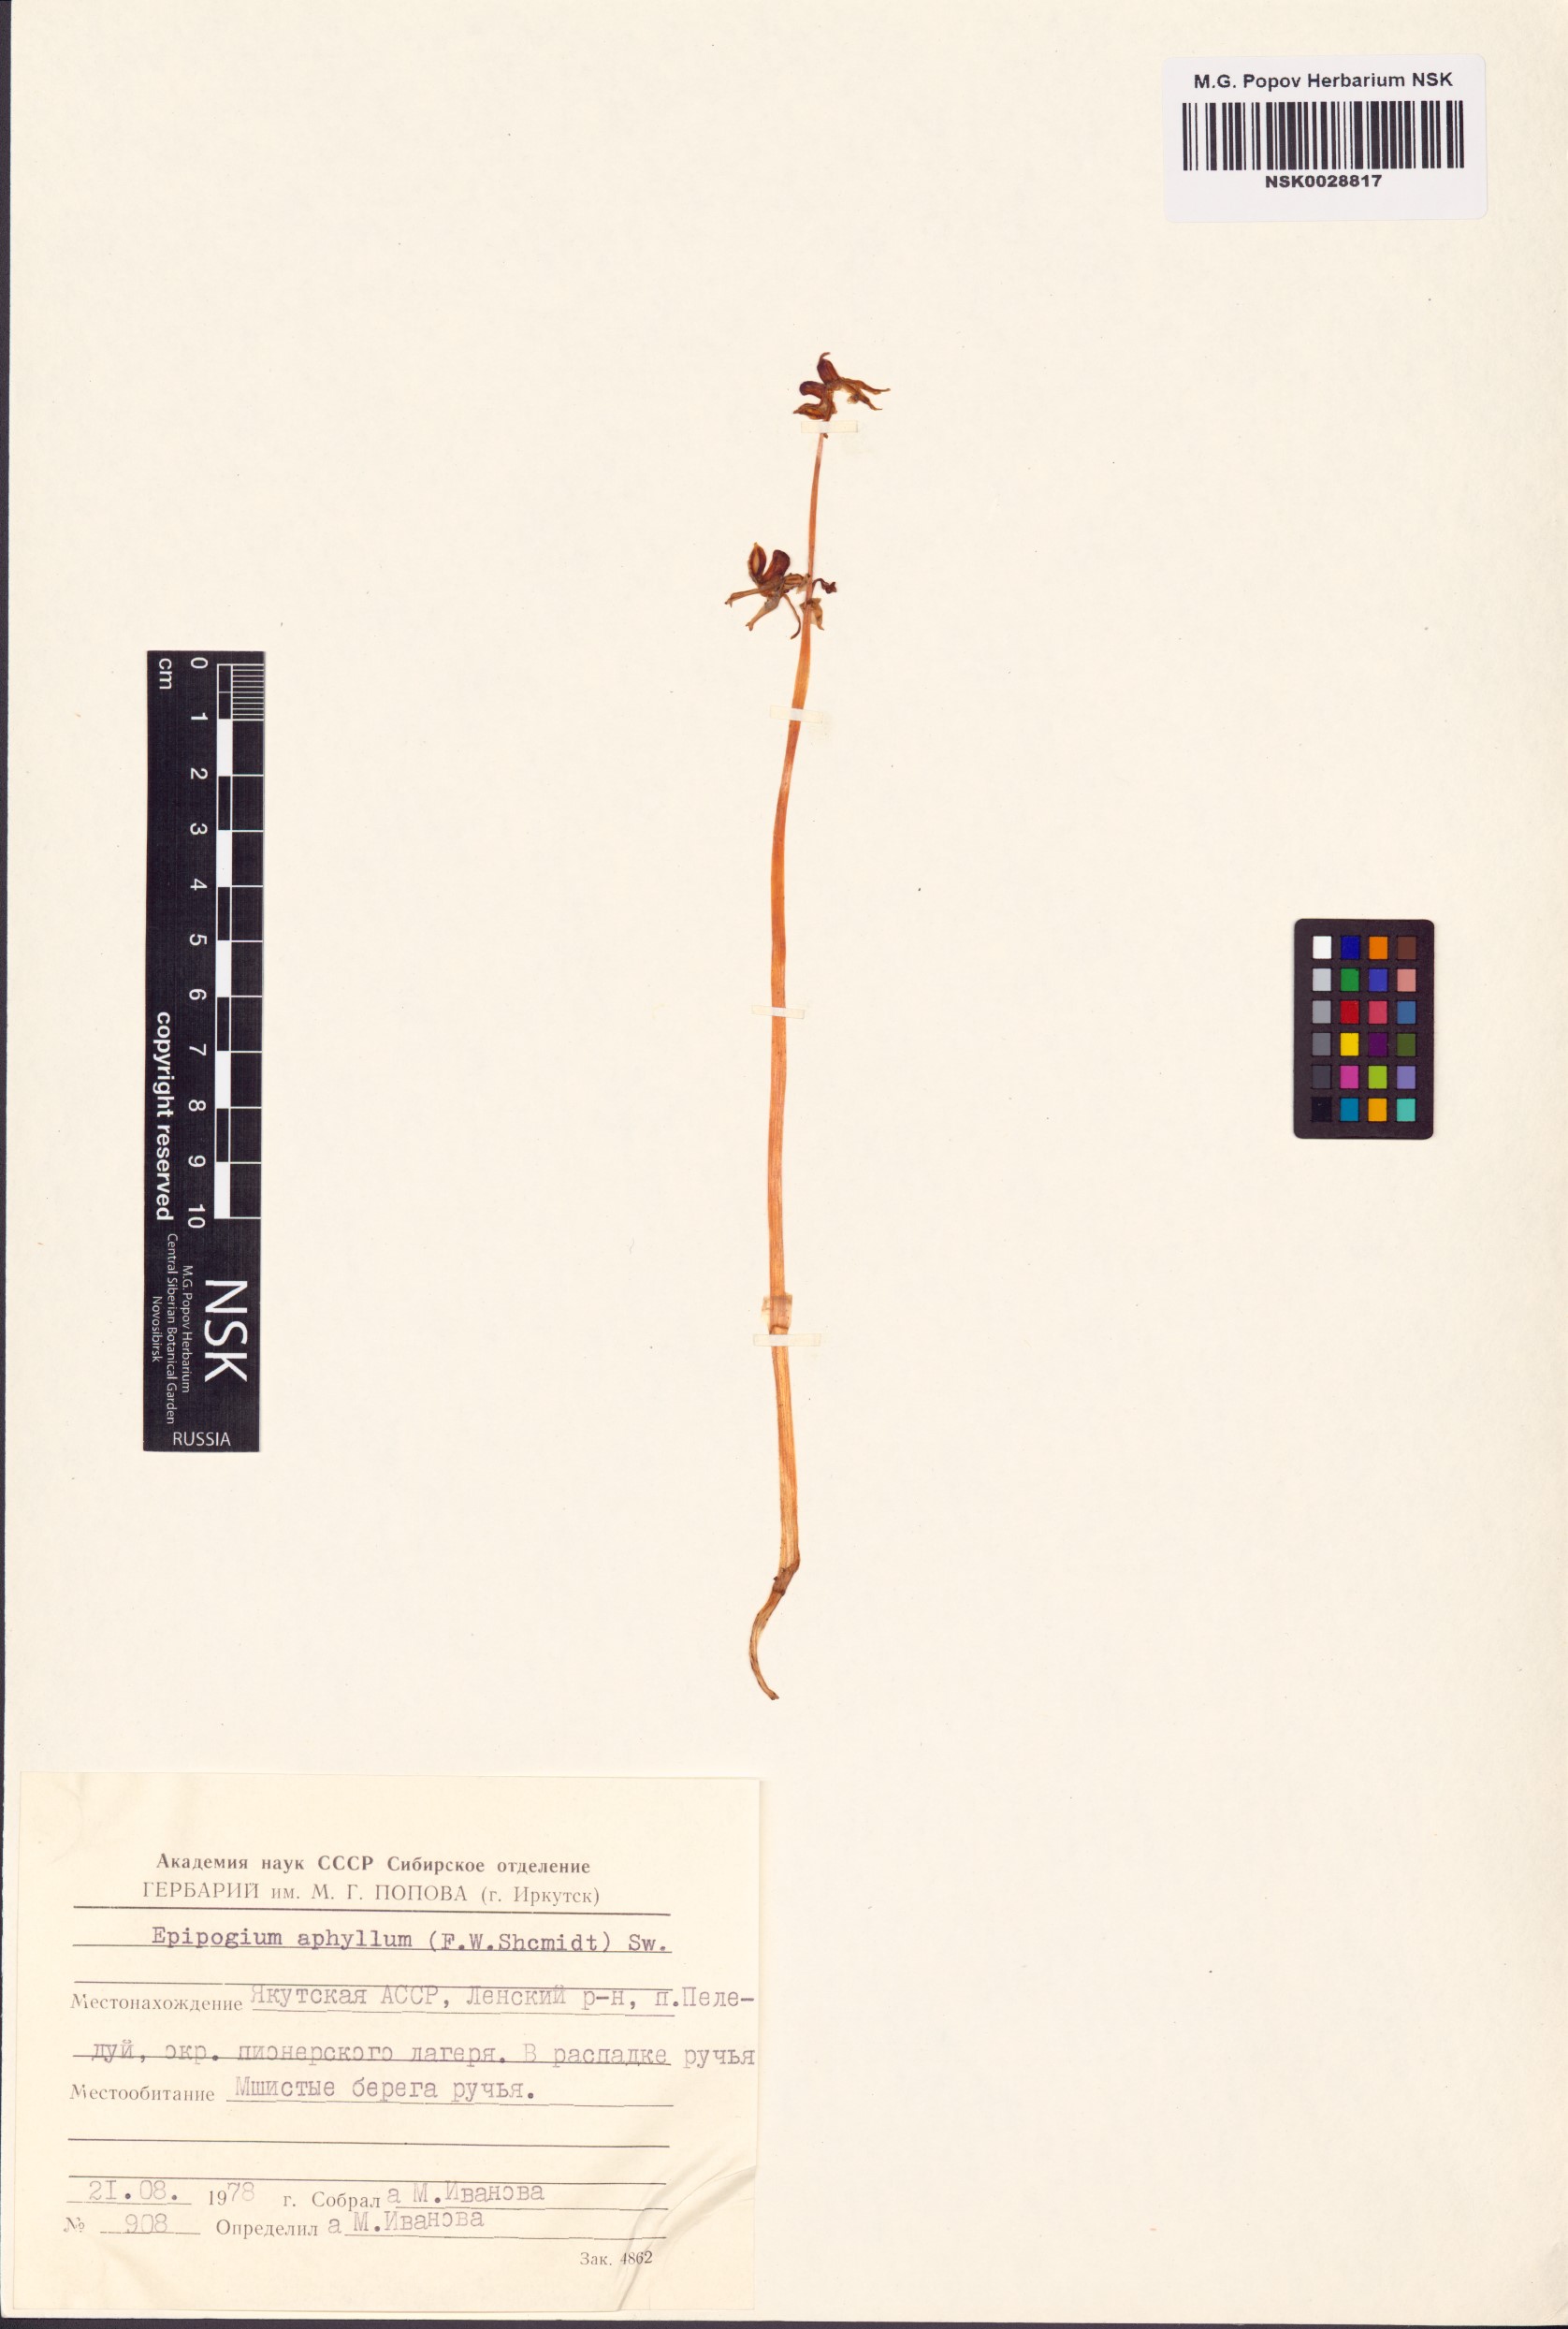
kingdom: Plantae
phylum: Tracheophyta
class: Liliopsida
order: Asparagales
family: Orchidaceae
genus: Epipogium
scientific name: Epipogium aphyllum
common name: Ghost orchid
